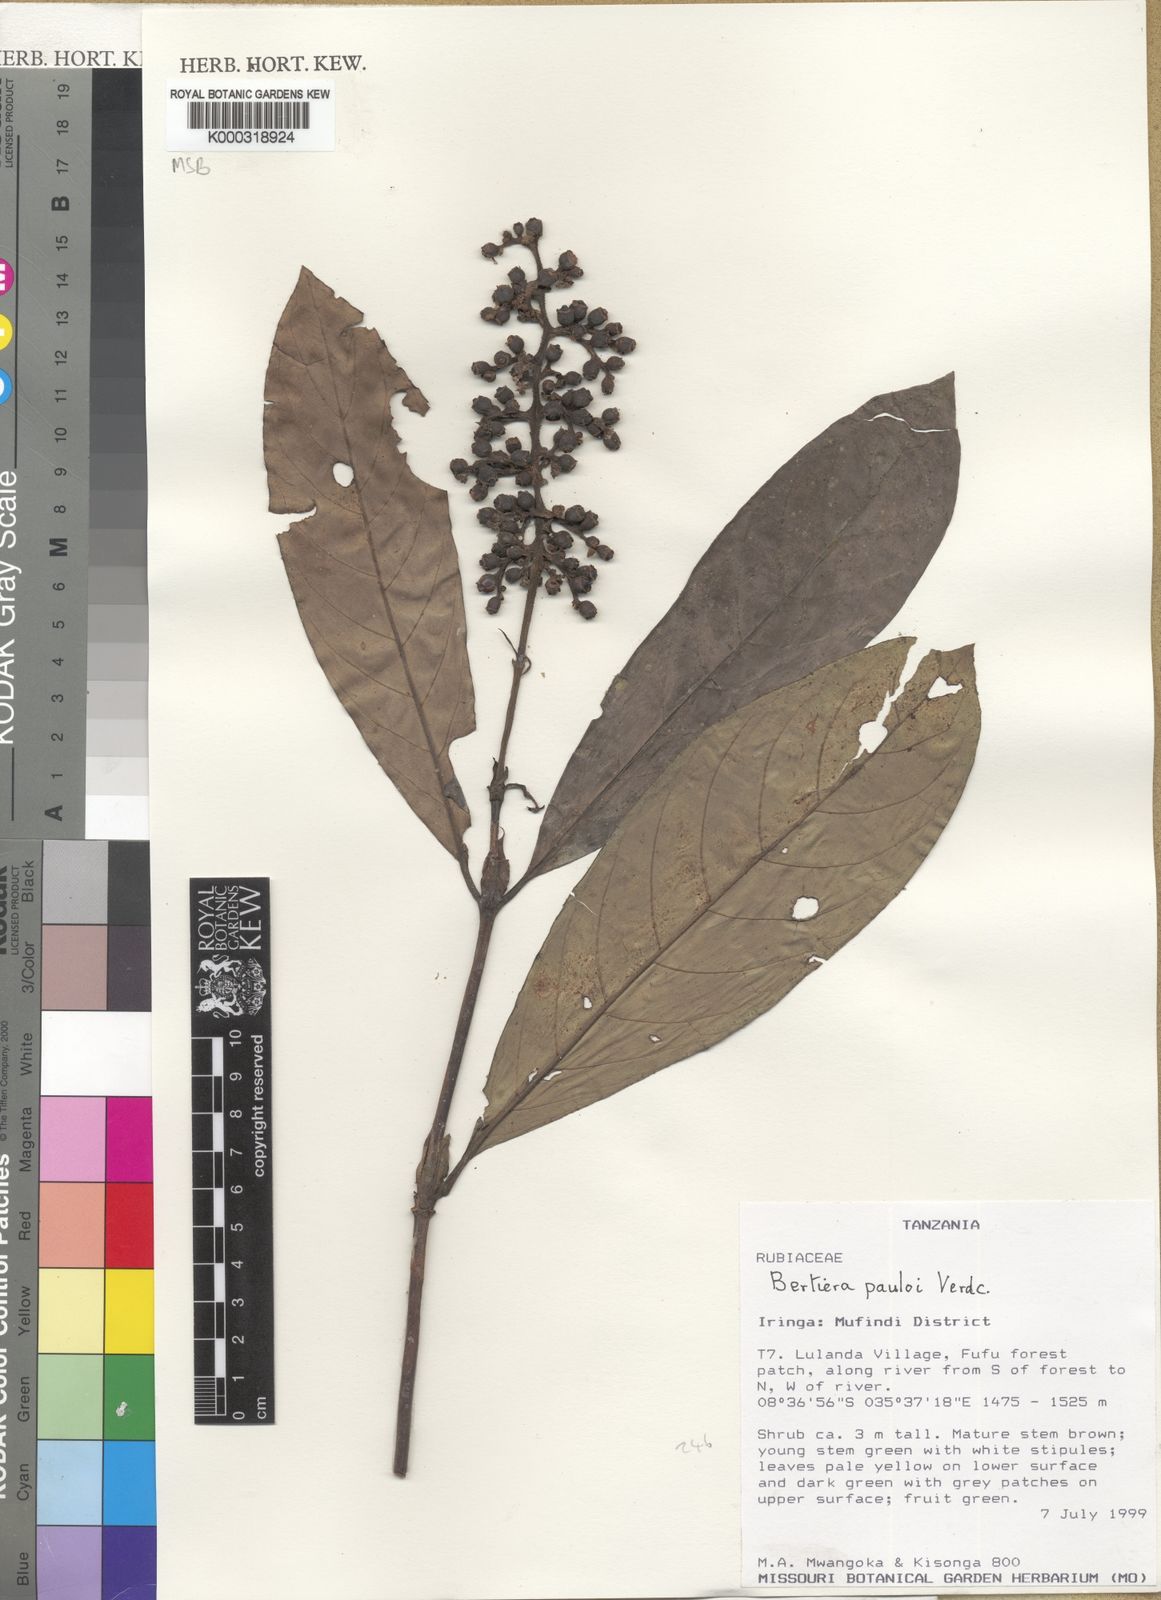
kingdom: Plantae
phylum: Tracheophyta
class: Magnoliopsida
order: Gentianales
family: Rubiaceae
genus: Bertiera
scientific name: Bertiera pauloi
